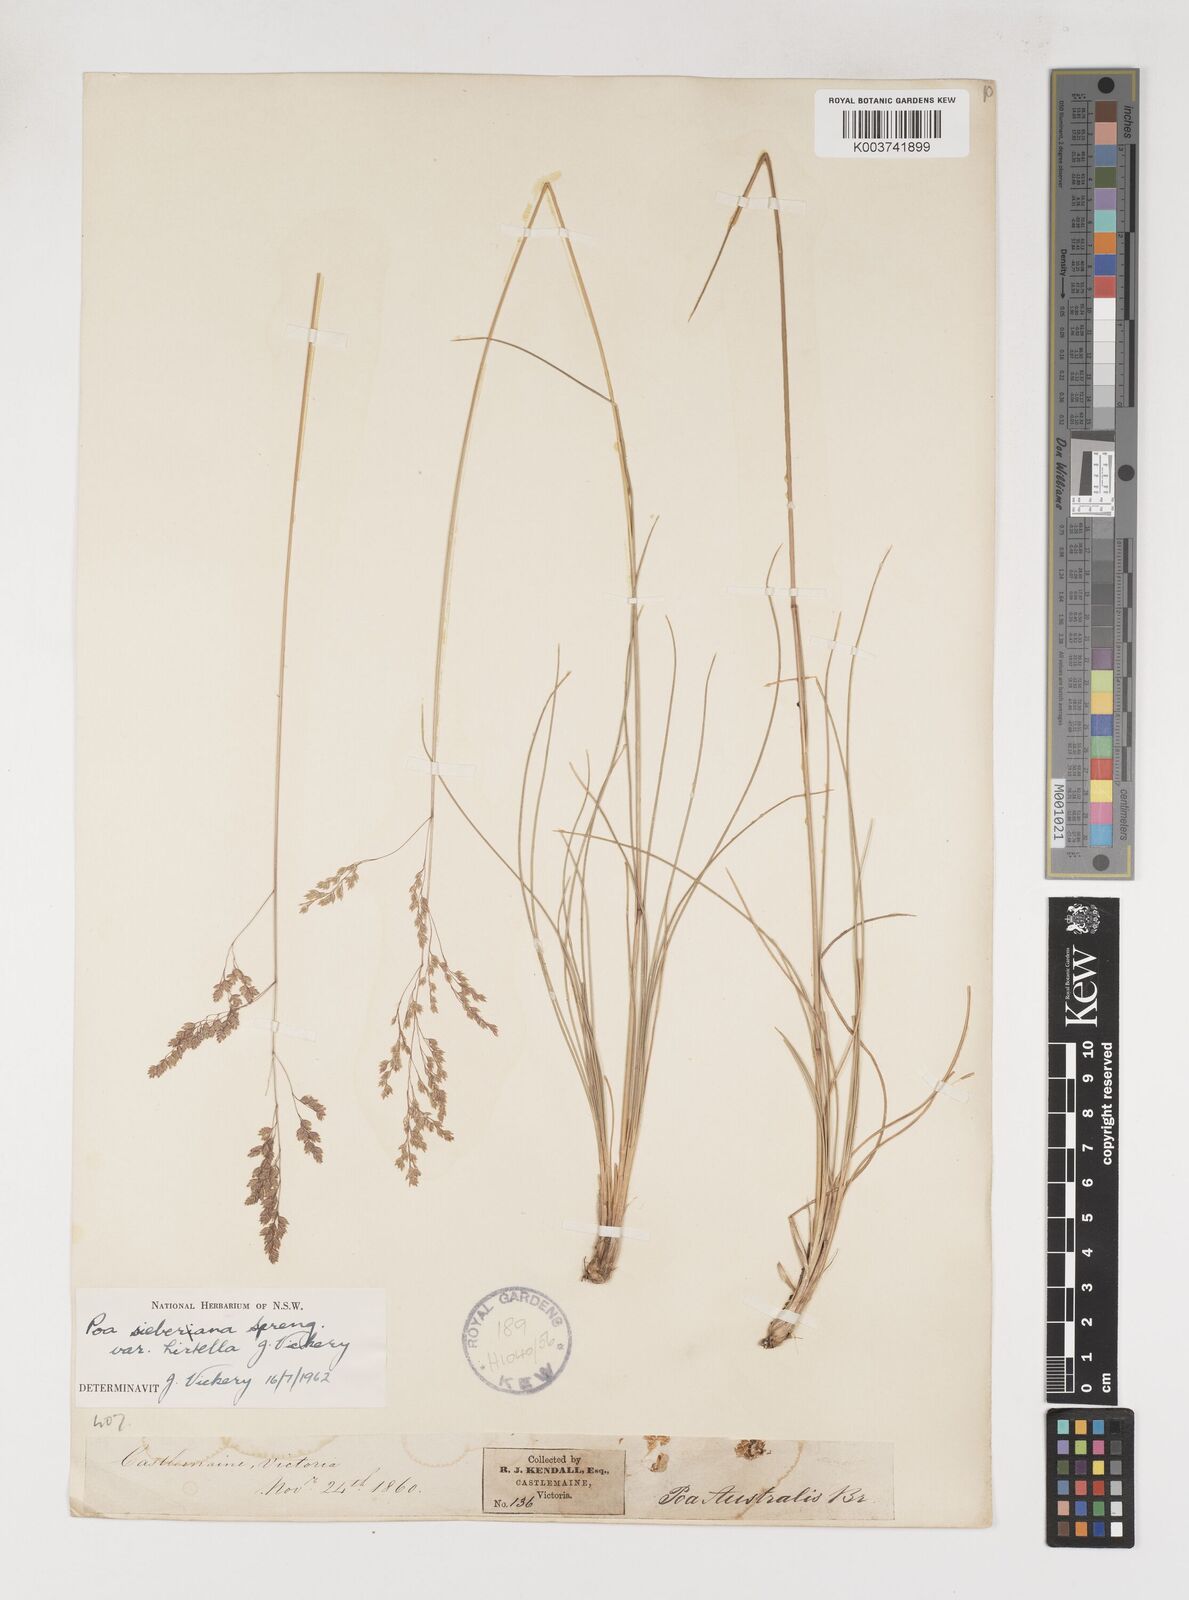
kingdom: Plantae
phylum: Tracheophyta
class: Liliopsida
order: Poales
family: Poaceae
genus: Poa
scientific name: Poa sieberiana
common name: Tussock poa
